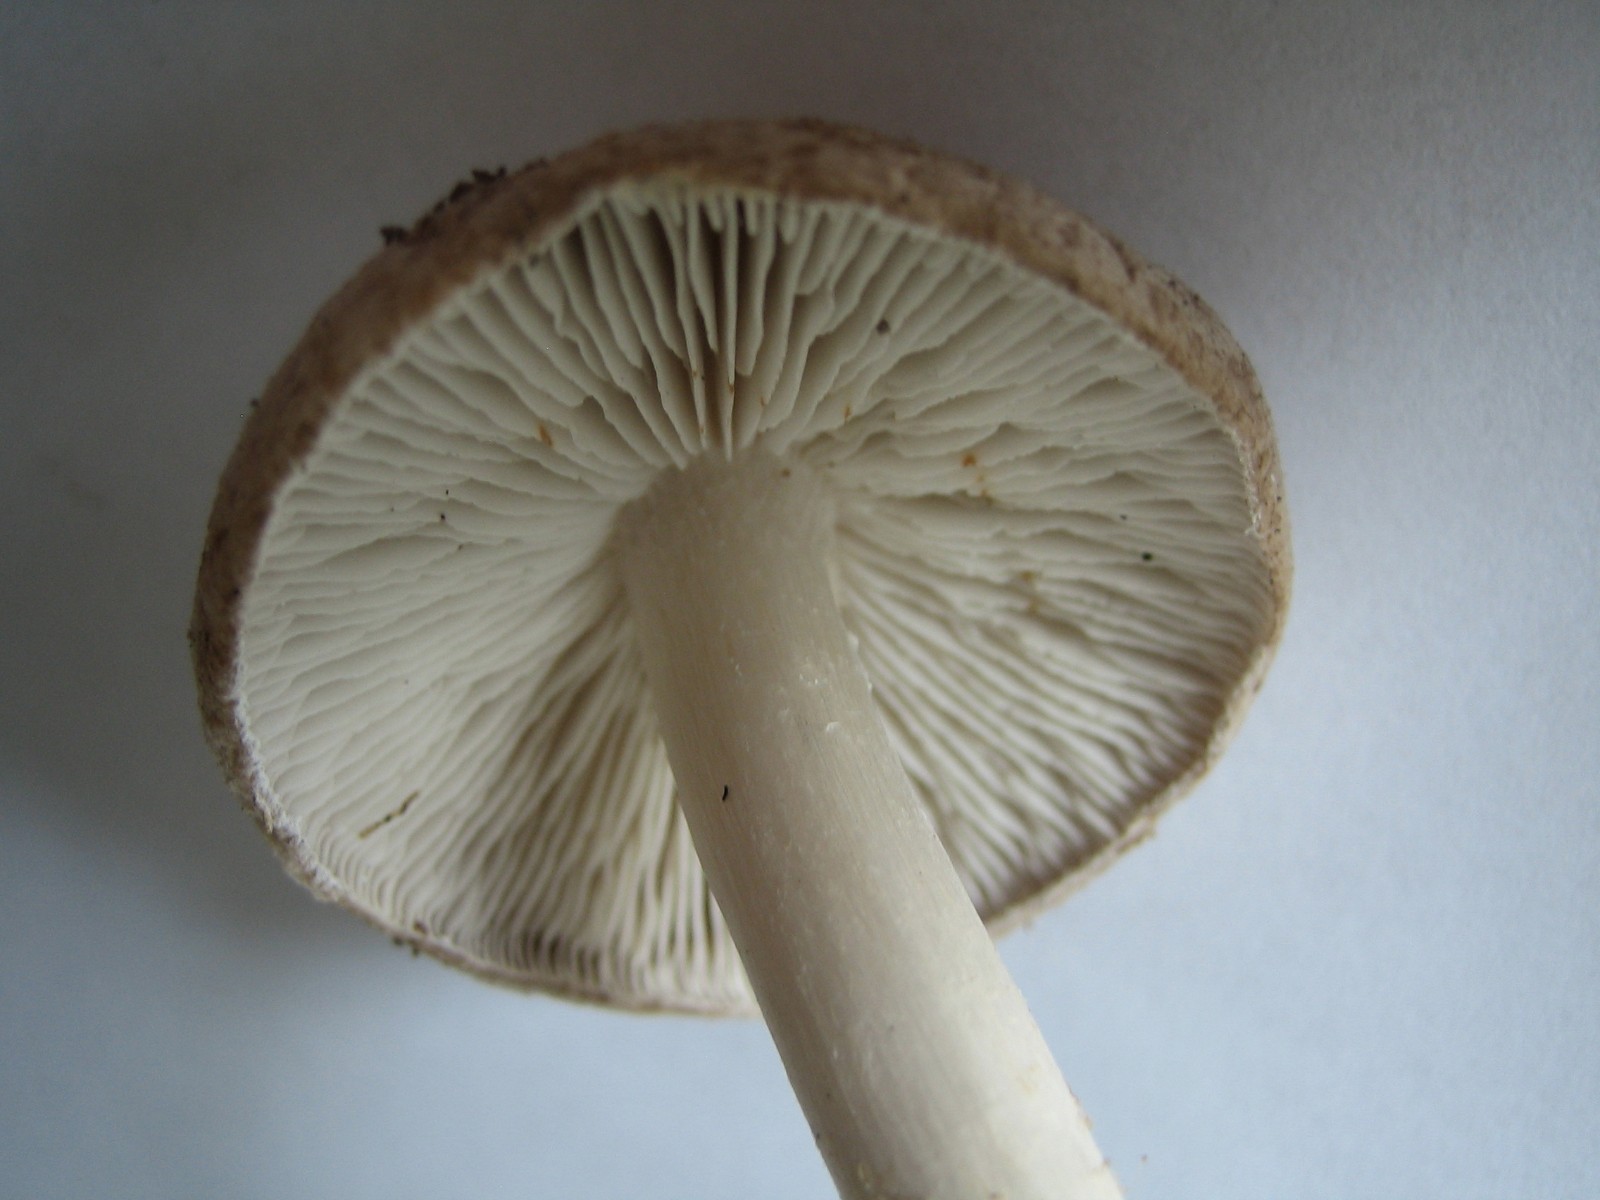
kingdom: Fungi
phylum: Basidiomycota
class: Agaricomycetes
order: Agaricales
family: Tricholomataceae
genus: Tricholoma
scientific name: Tricholoma terreum
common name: jordfarvet ridderhat
